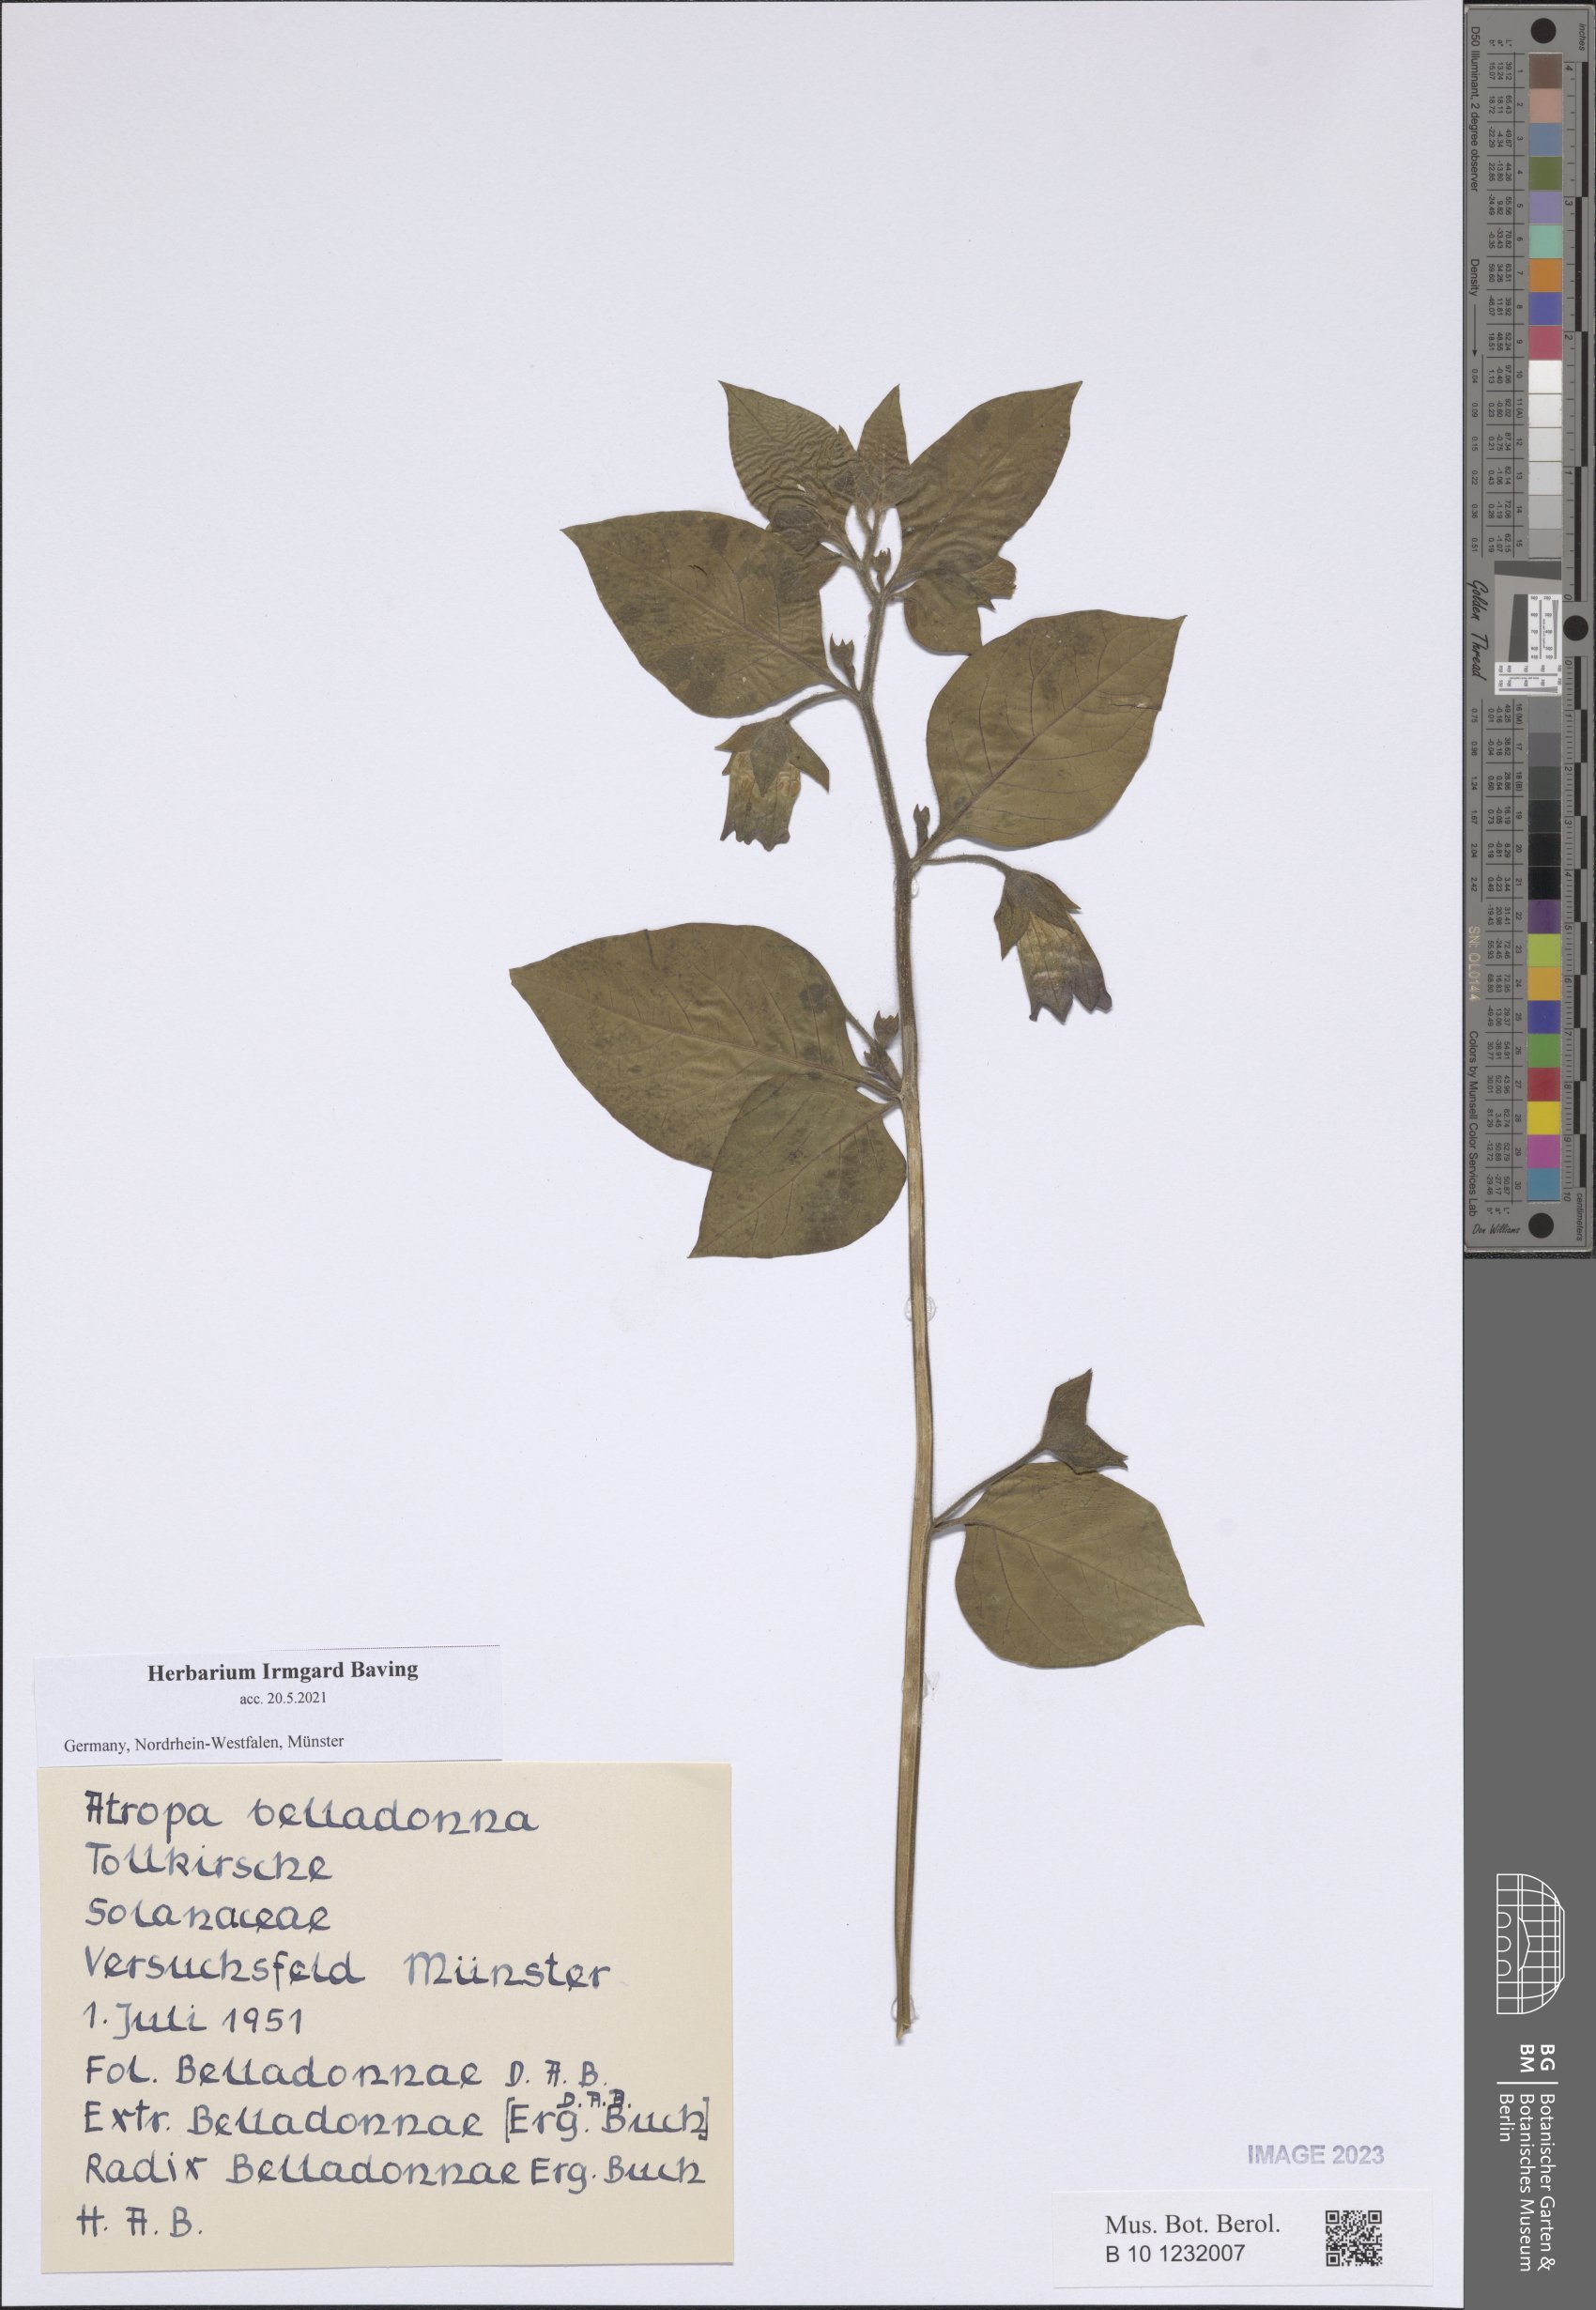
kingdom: Plantae
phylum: Tracheophyta
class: Magnoliopsida
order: Solanales
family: Solanaceae
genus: Atropa
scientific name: Atropa belladonna
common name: Deadly nightshade
